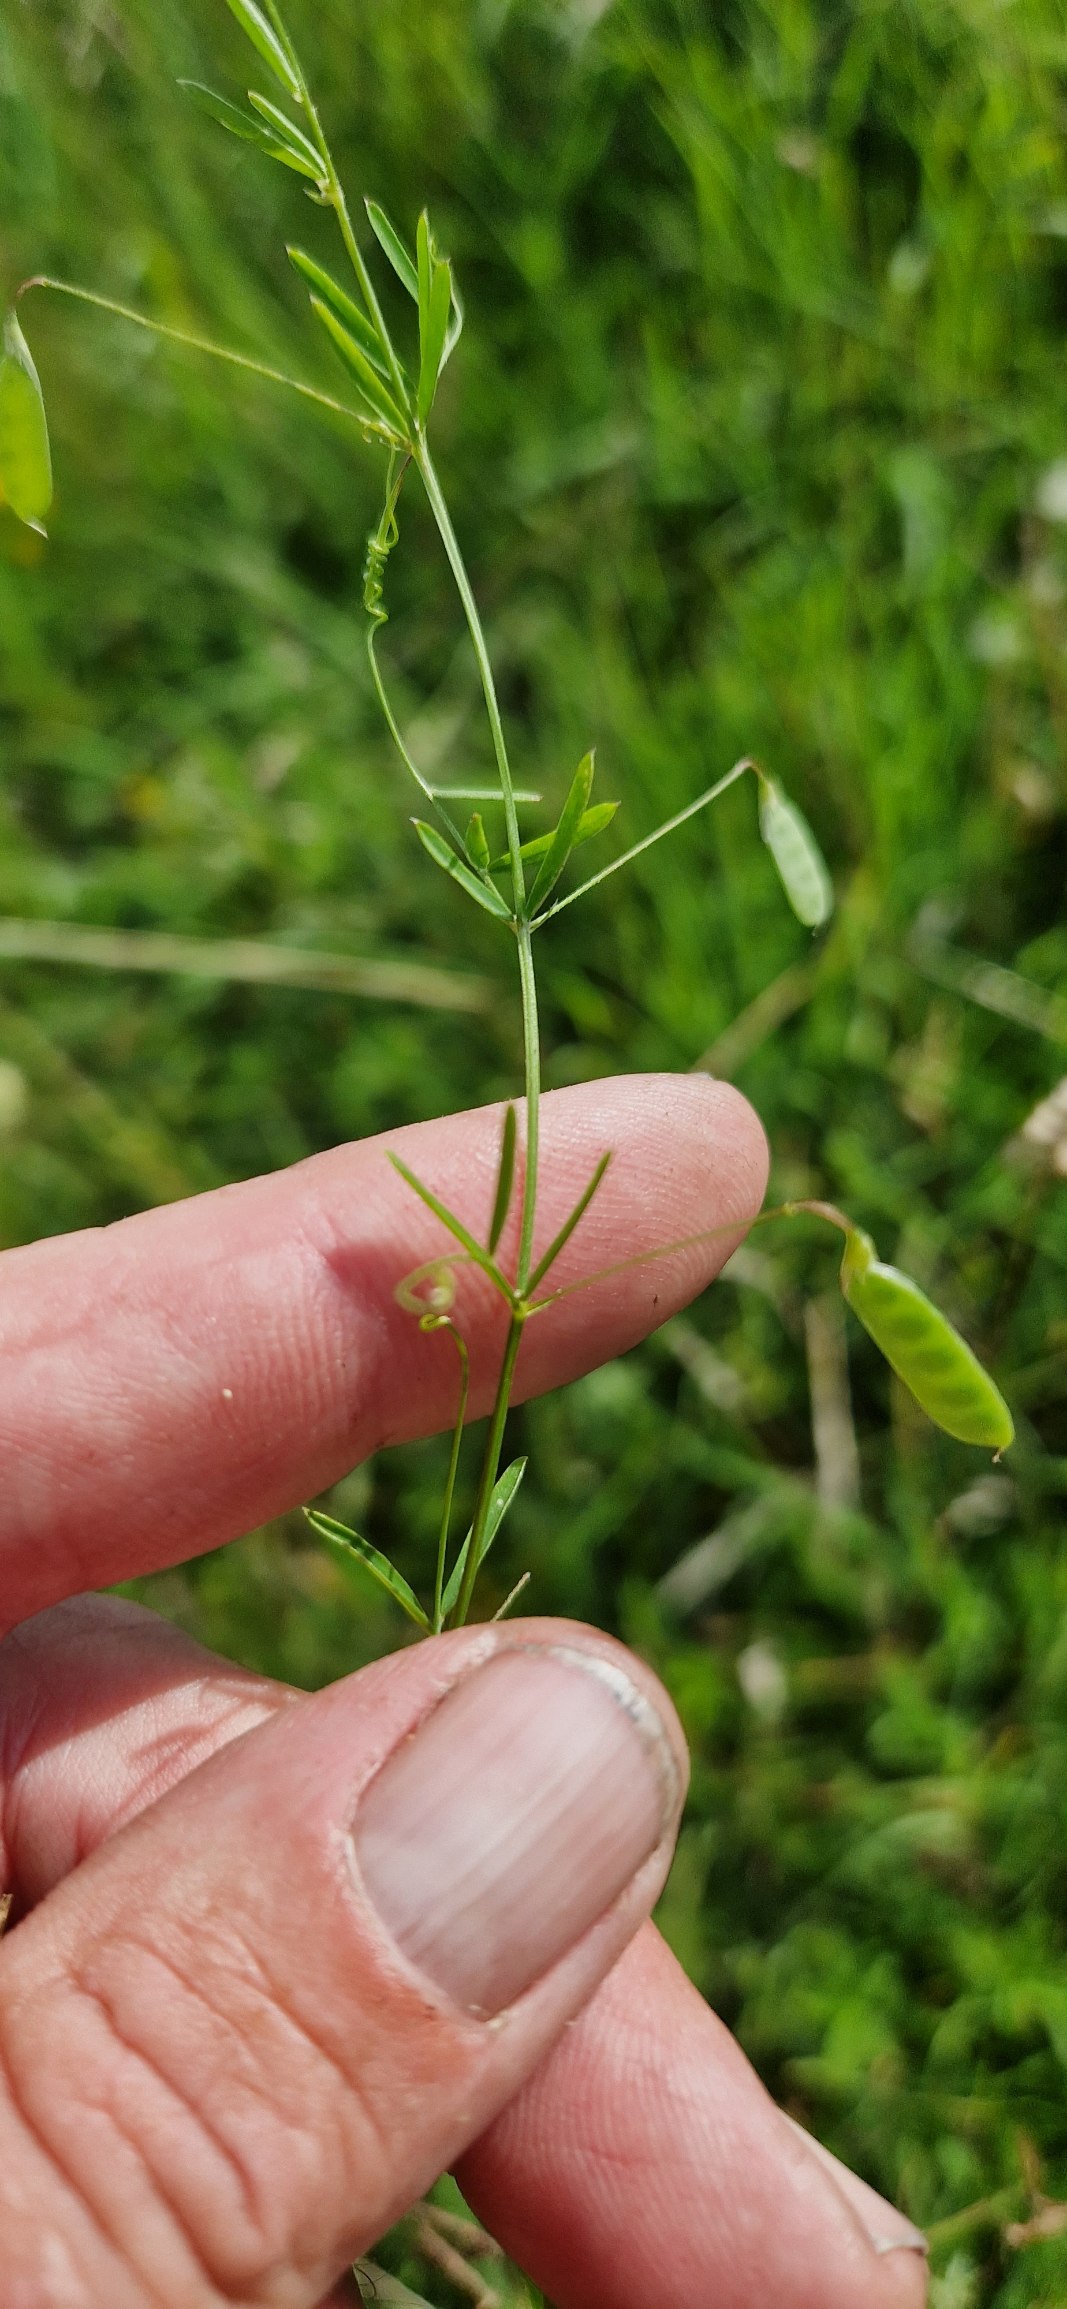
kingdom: Plantae
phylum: Tracheophyta
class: Magnoliopsida
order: Fabales
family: Fabaceae
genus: Vicia
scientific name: Vicia tetrasperma
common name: Tadder-vikke
